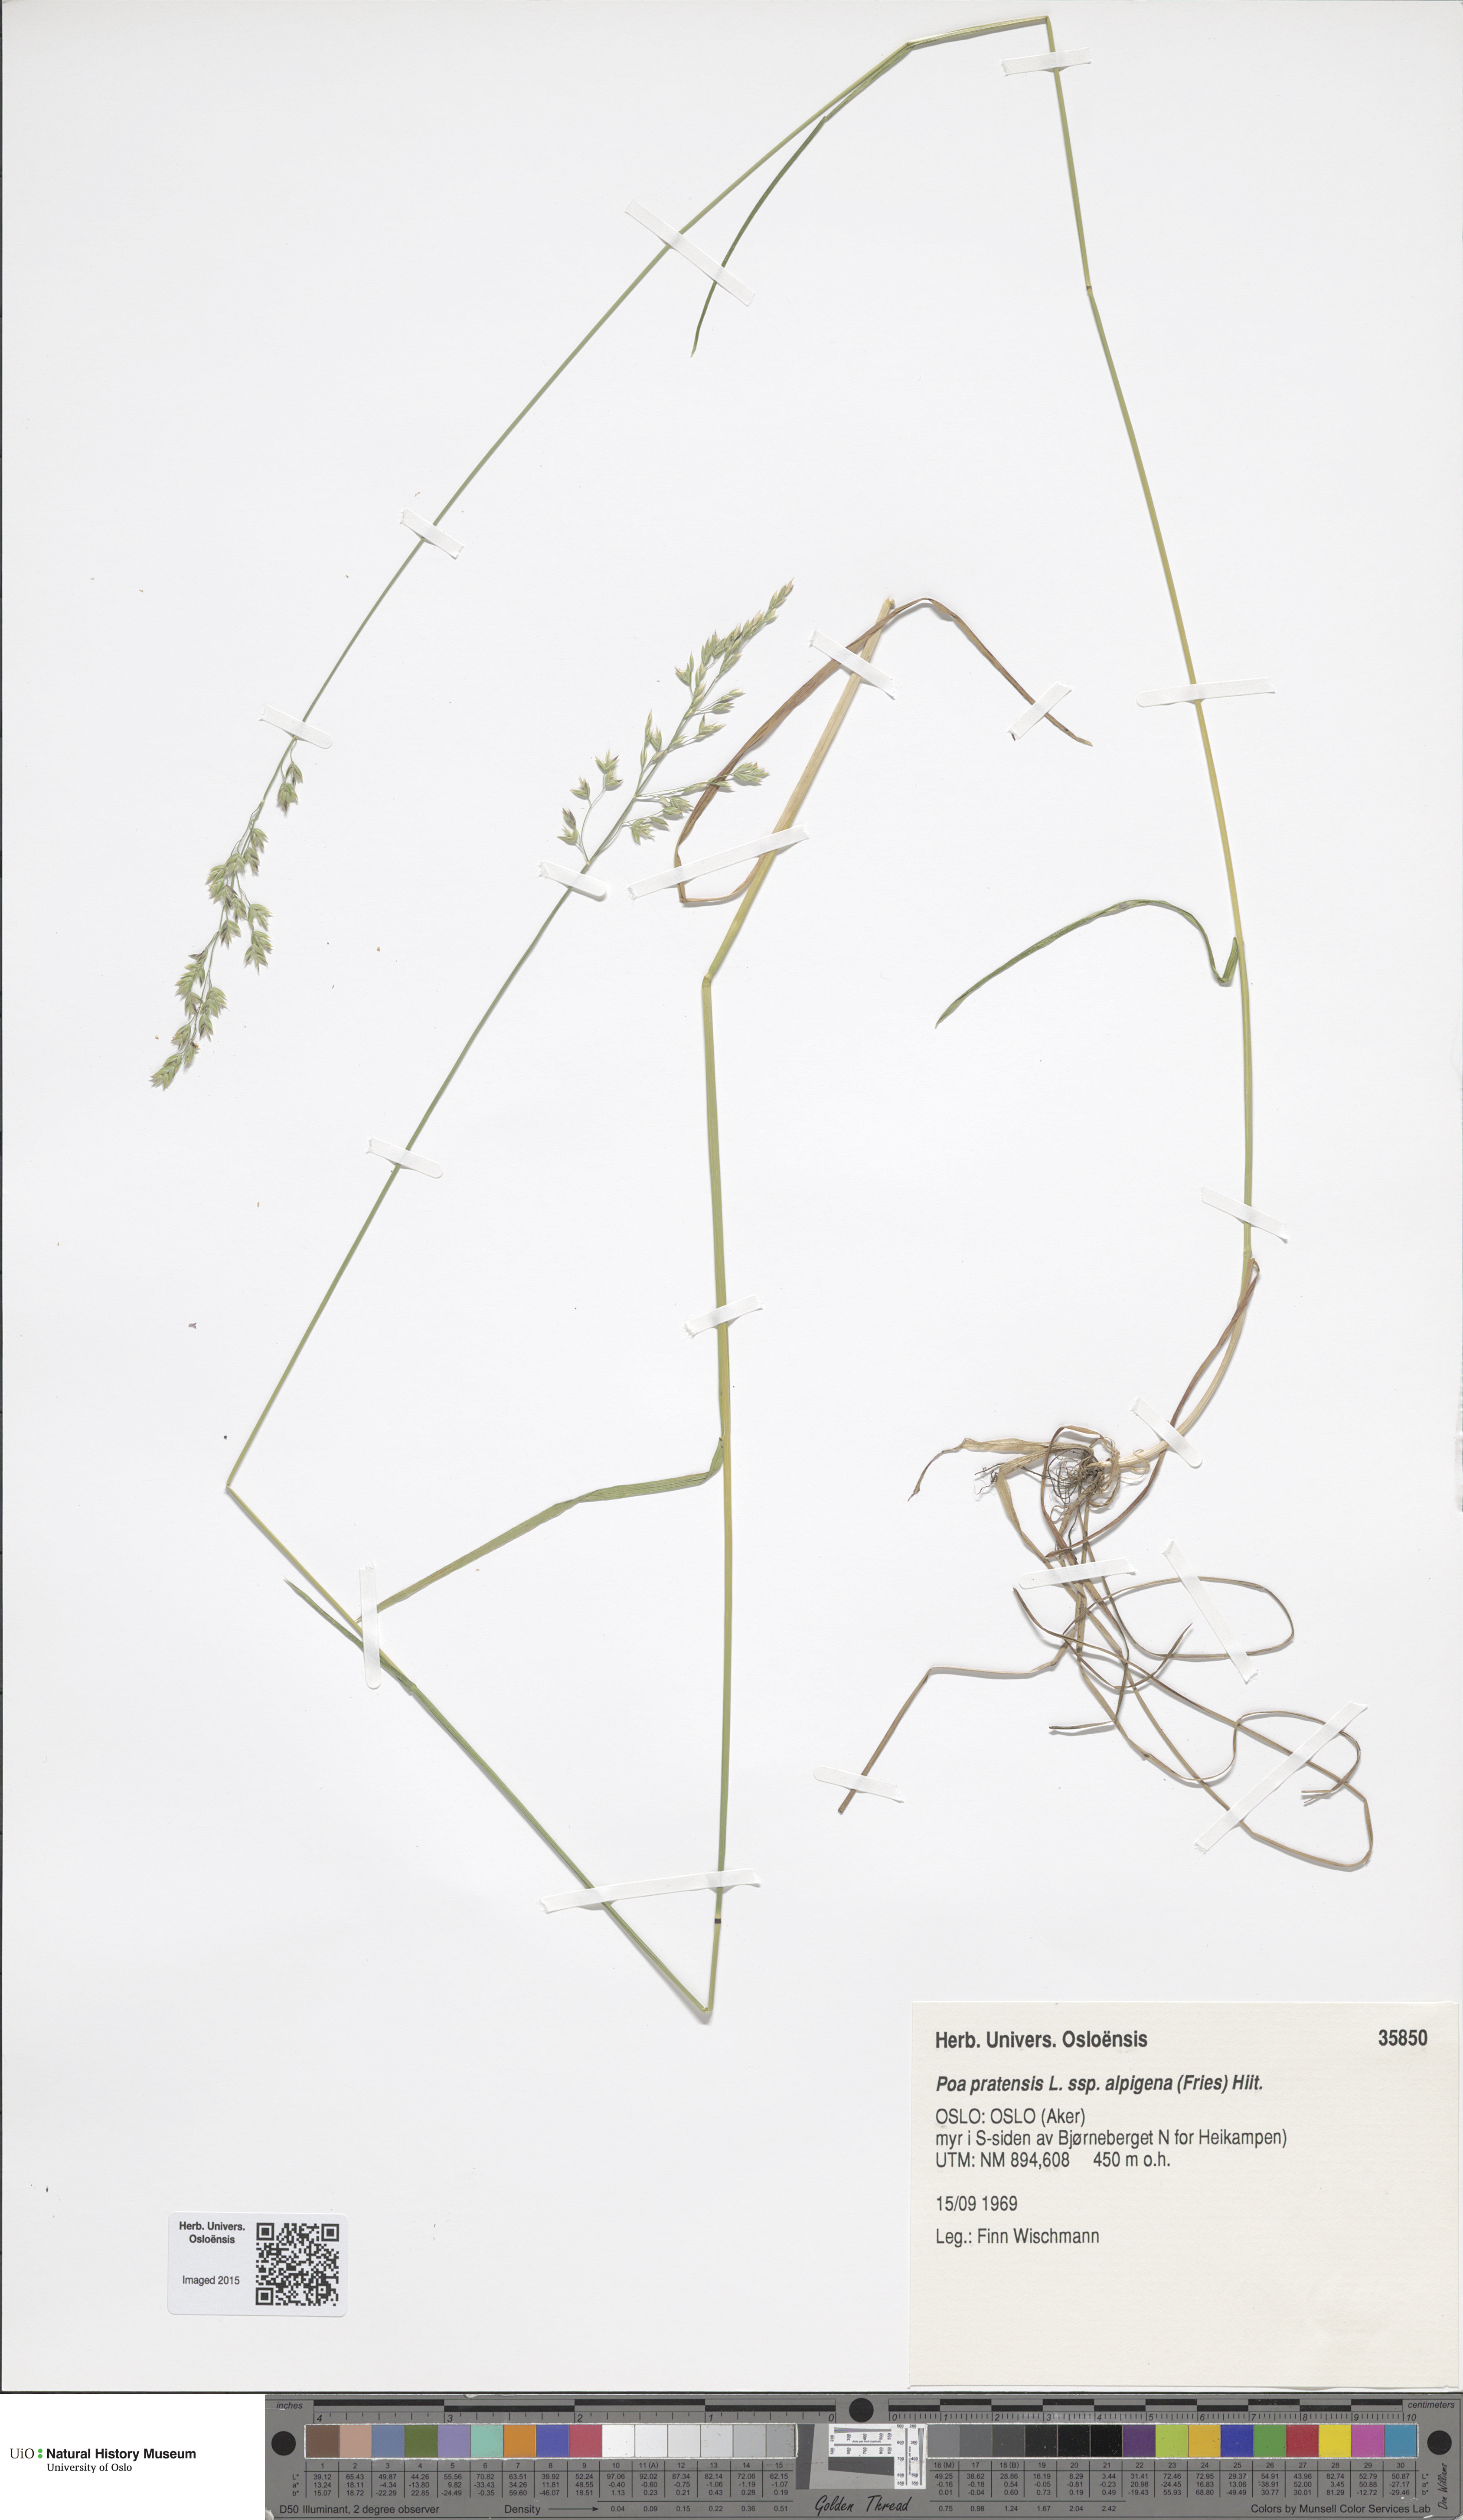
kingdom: Plantae
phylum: Tracheophyta
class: Liliopsida
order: Poales
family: Poaceae
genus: Poa
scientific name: Poa alpigena
